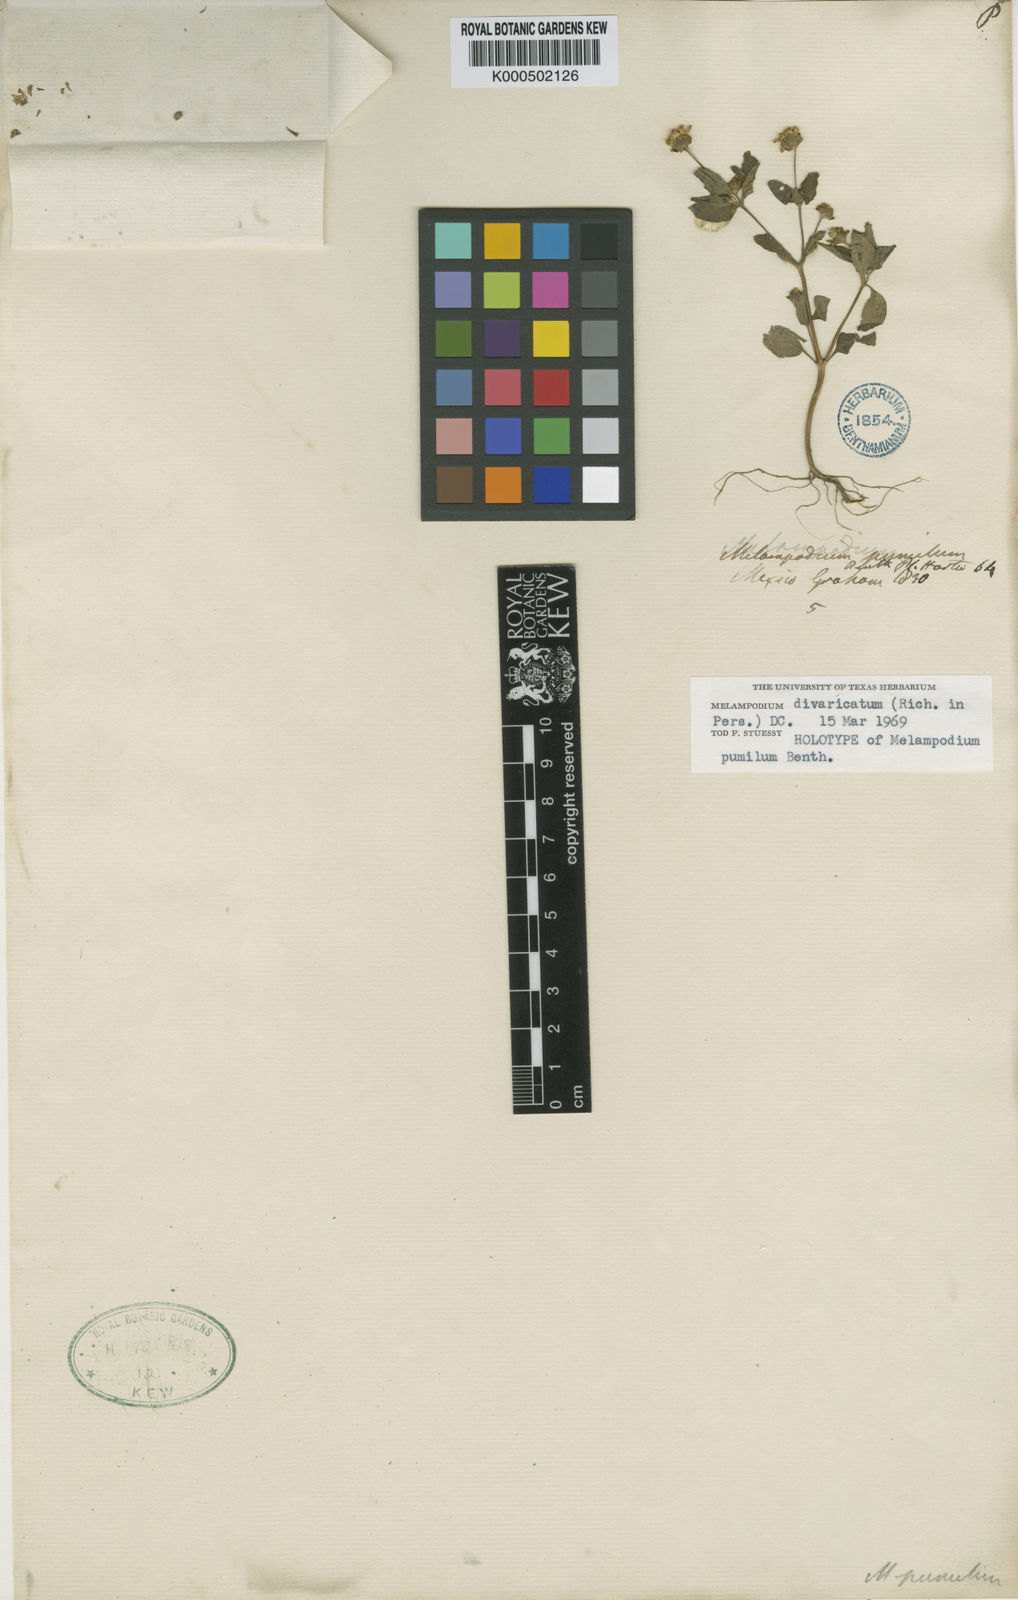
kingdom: Plantae
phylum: Tracheophyta
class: Magnoliopsida
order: Asterales
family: Asteraceae
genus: Melampodium
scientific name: Melampodium divaricatum
